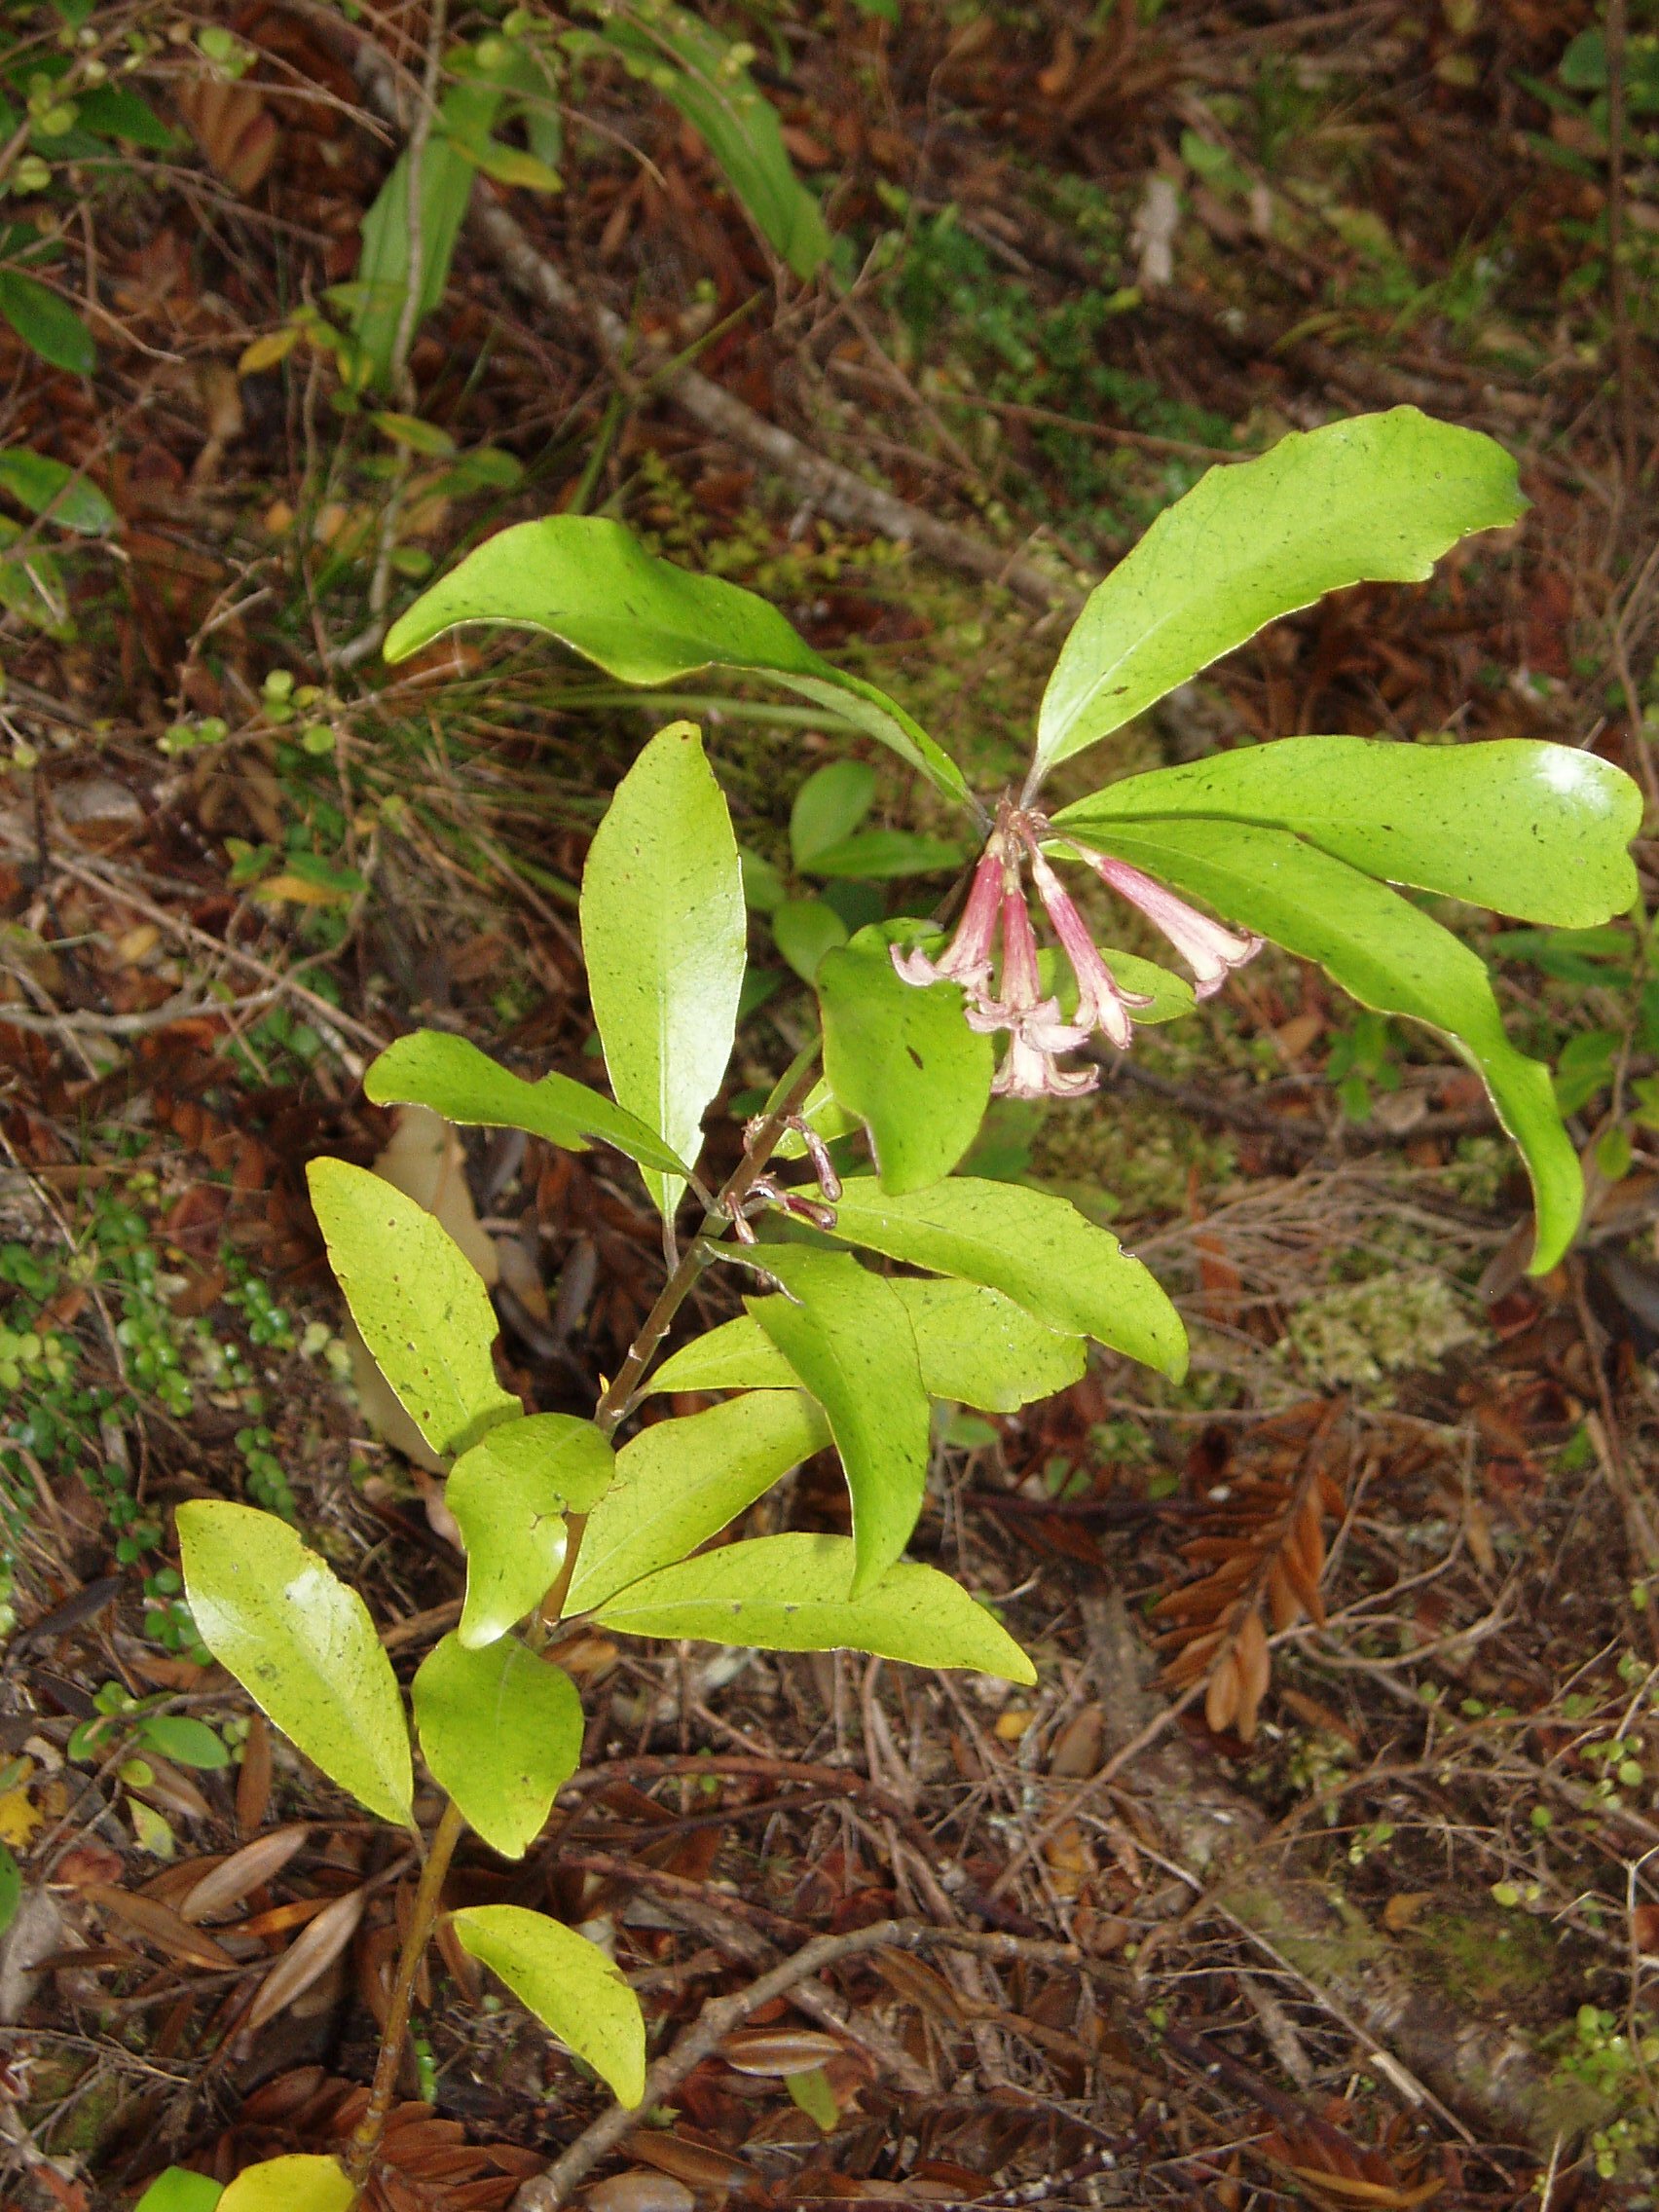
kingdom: Plantae
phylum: Tracheophyta
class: Magnoliopsida
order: Asterales
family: Alseuosmiaceae
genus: Alseuosmia
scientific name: Alseuosmia quercifolia
